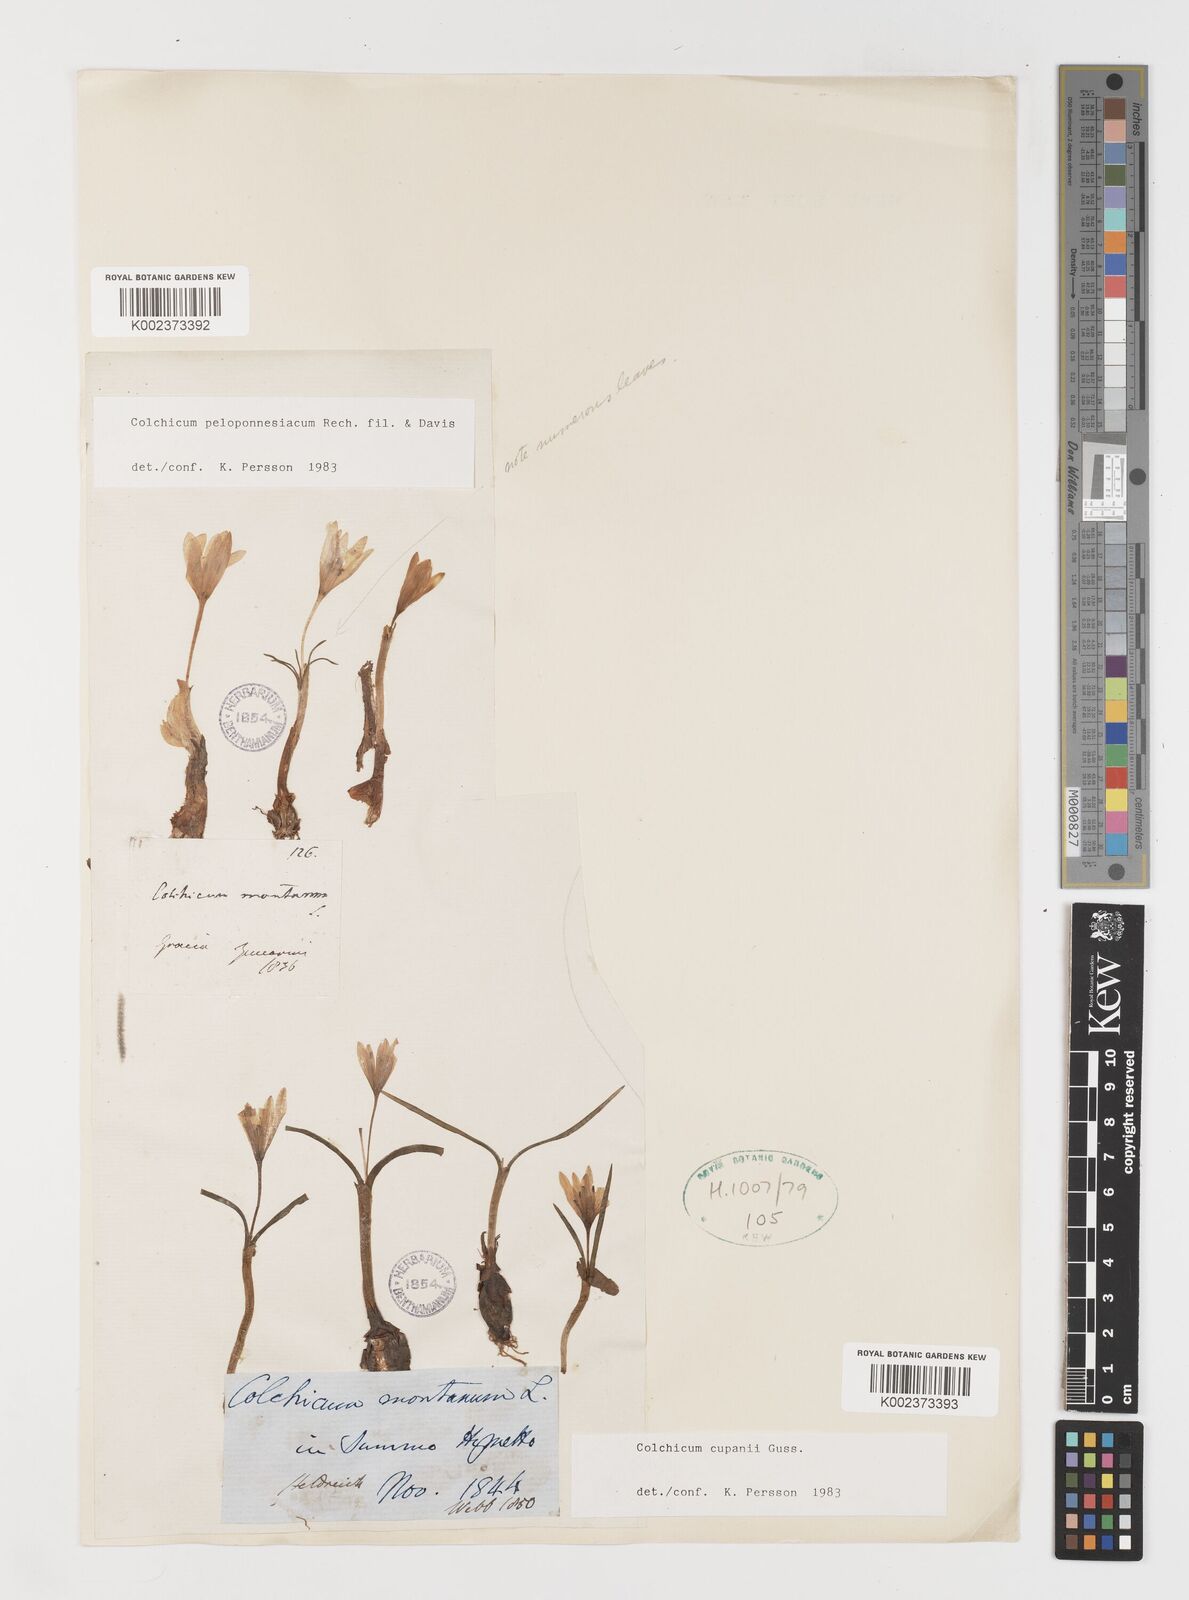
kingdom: Plantae
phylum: Tracheophyta
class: Liliopsida
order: Liliales
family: Colchicaceae
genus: Colchicum
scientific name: Colchicum peloponnesiacum
